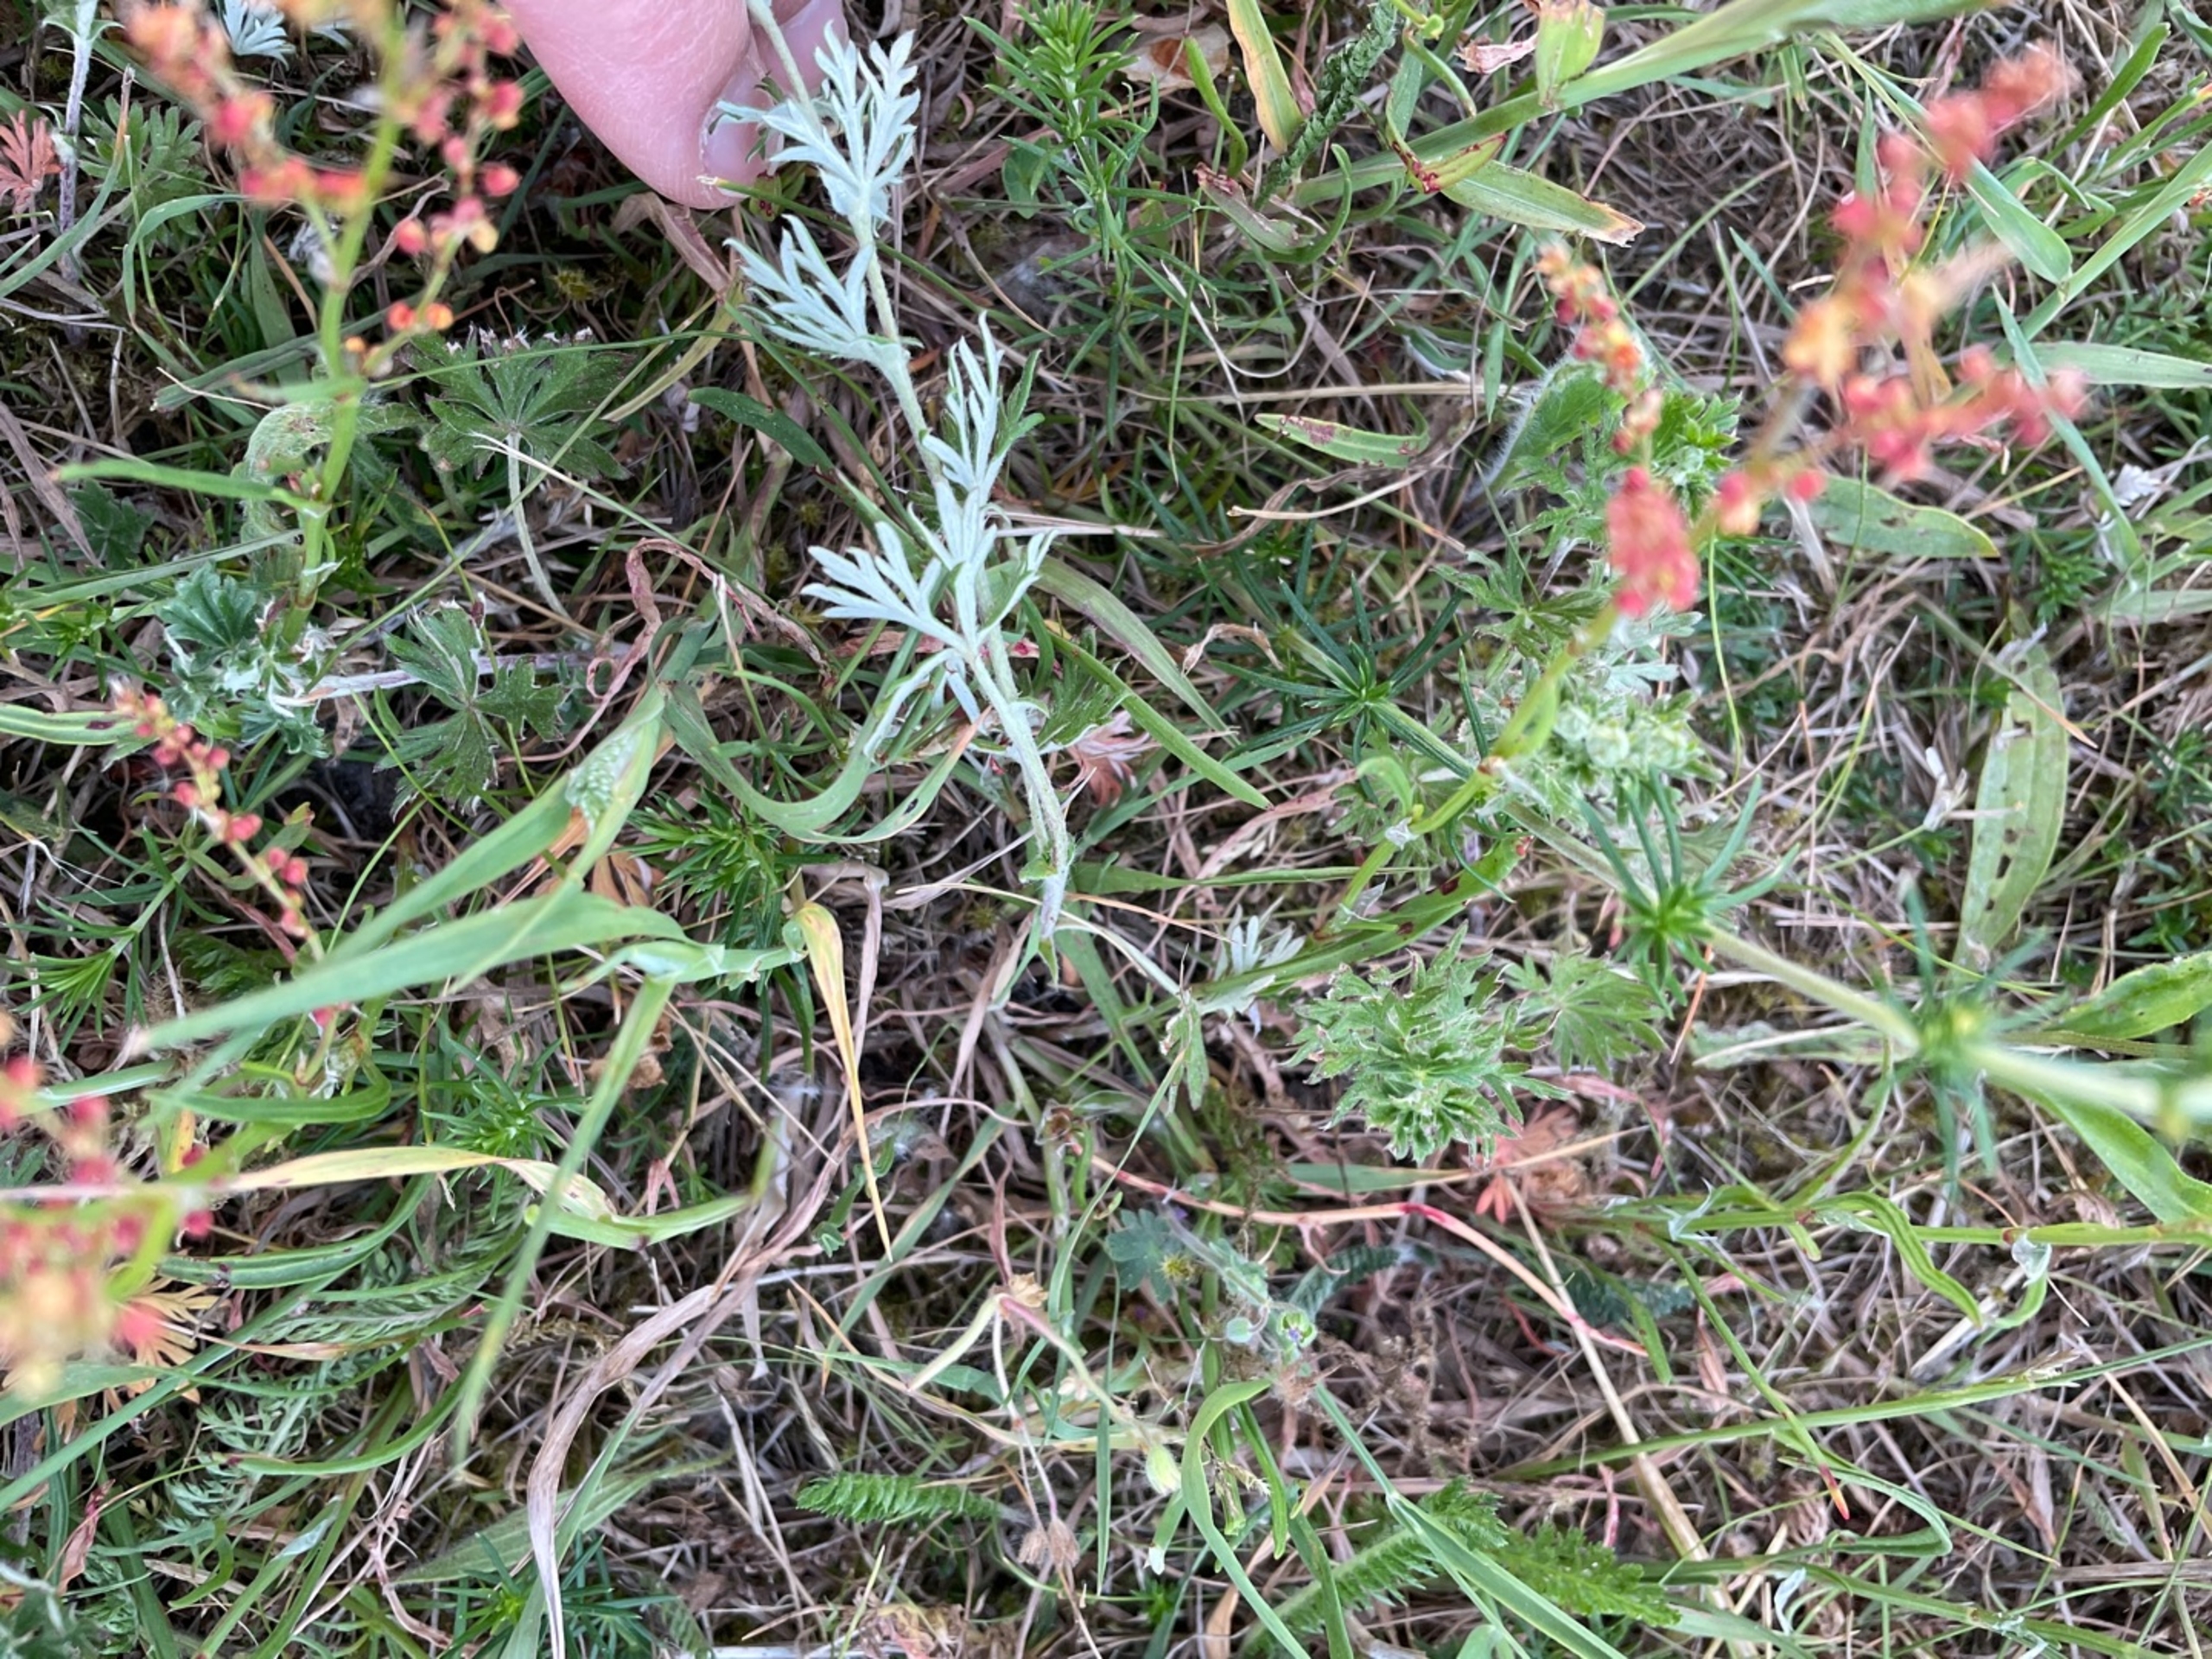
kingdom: Plantae
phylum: Tracheophyta
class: Magnoliopsida
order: Rosales
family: Rosaceae
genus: Potentilla
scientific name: Potentilla argentea
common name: Sølv-potentil
